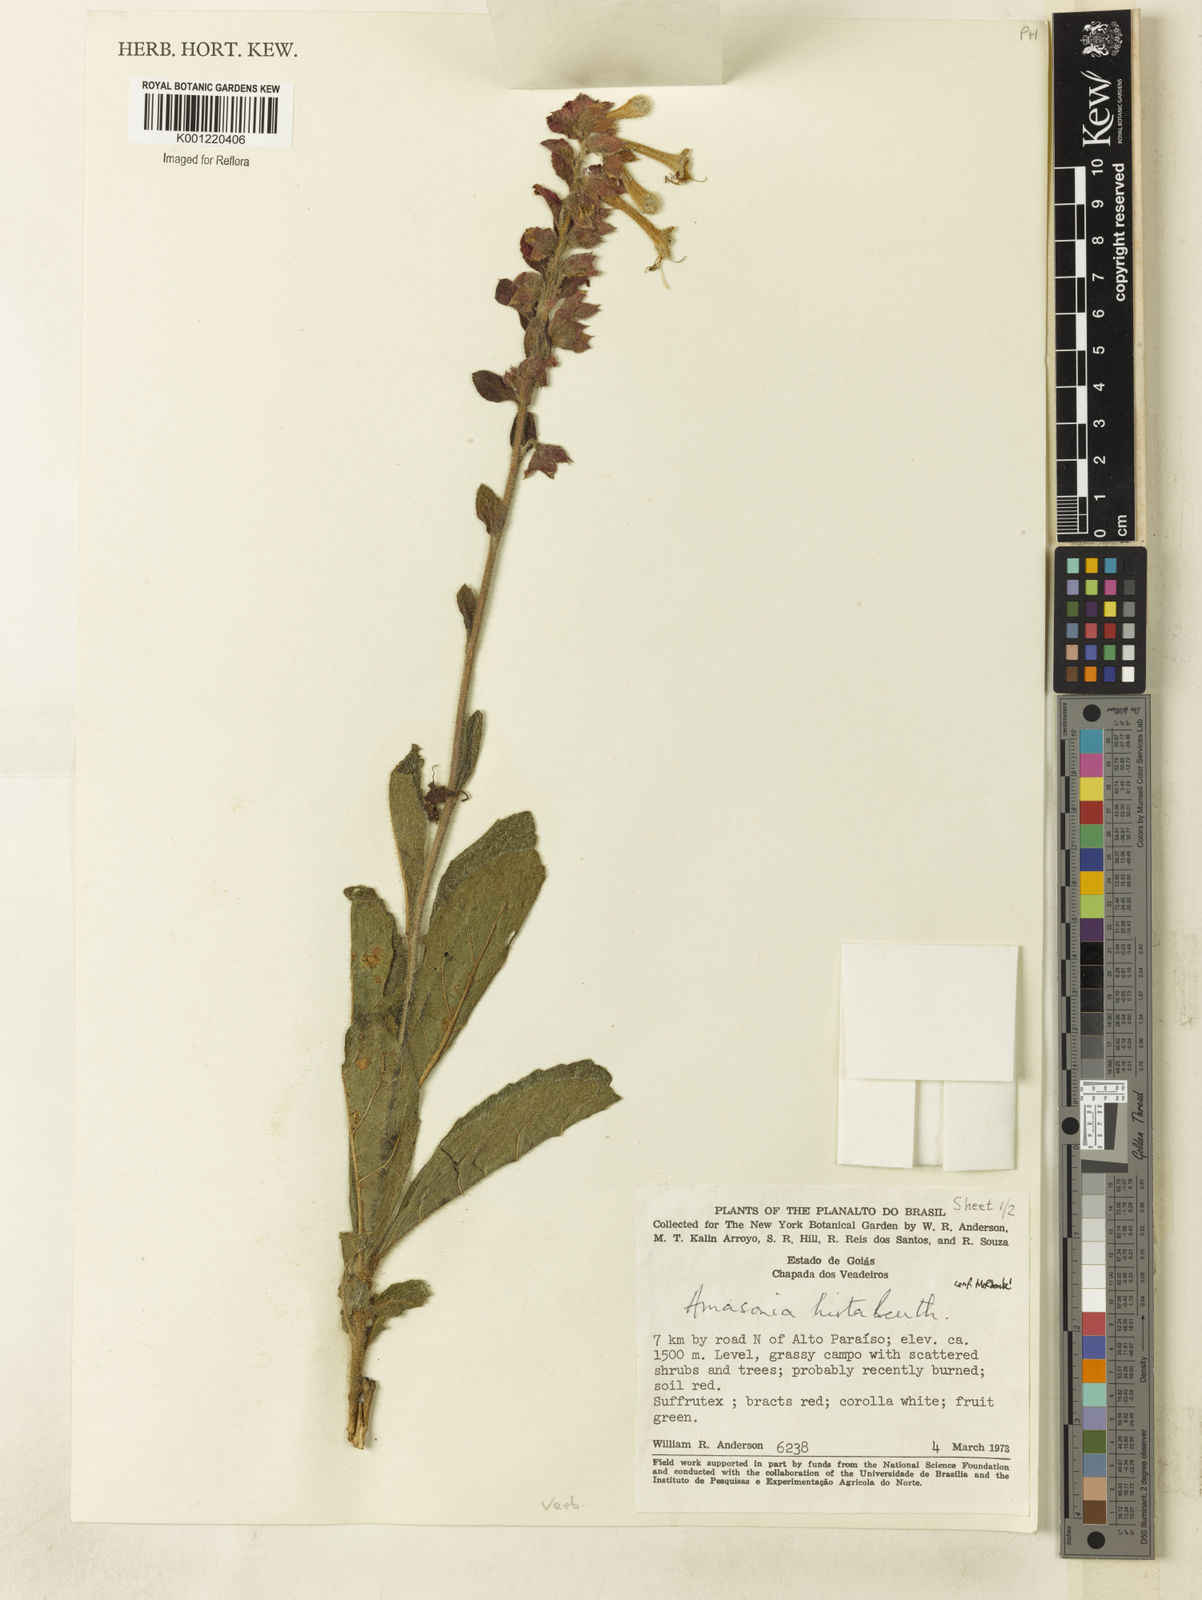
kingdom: Plantae
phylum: Tracheophyta
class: Magnoliopsida
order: Lamiales
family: Lamiaceae
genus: Amasonia
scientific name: Amasonia hirta
